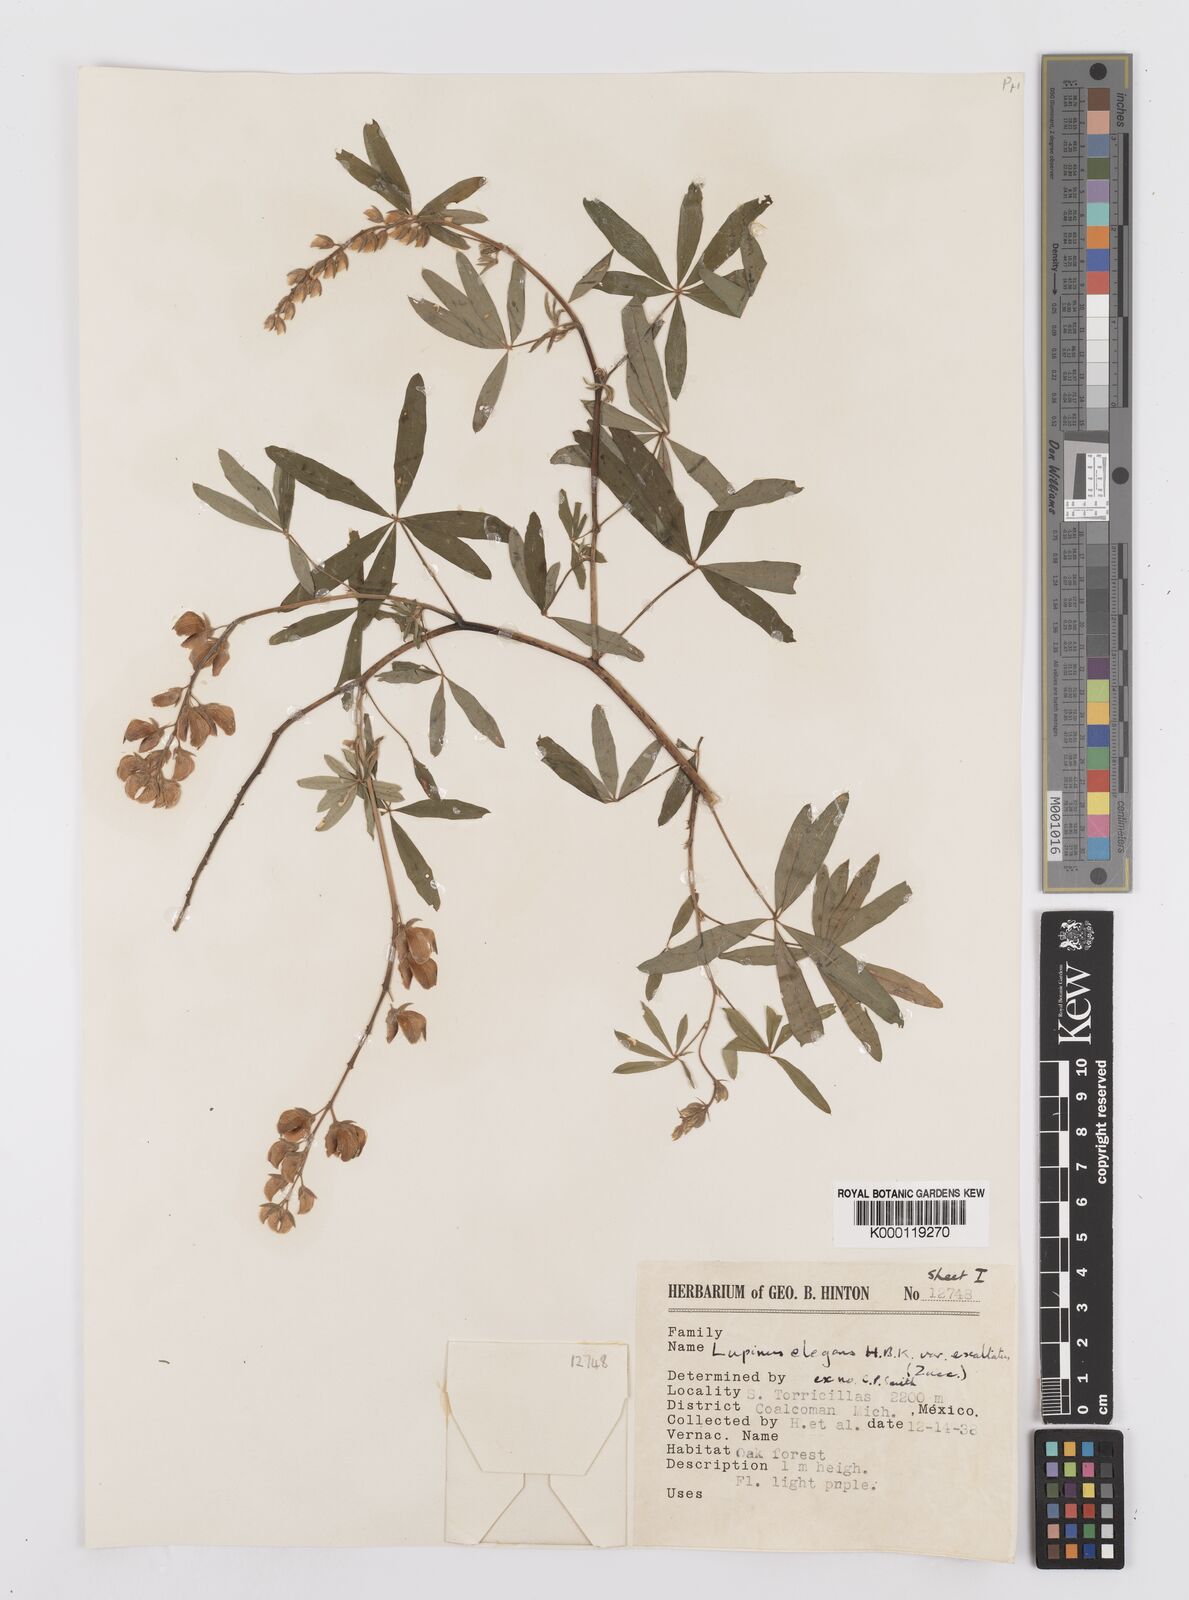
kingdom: Plantae
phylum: Tracheophyta
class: Magnoliopsida
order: Fabales
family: Fabaceae
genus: Lupinus
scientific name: Lupinus elegans
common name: Mexican lupine
